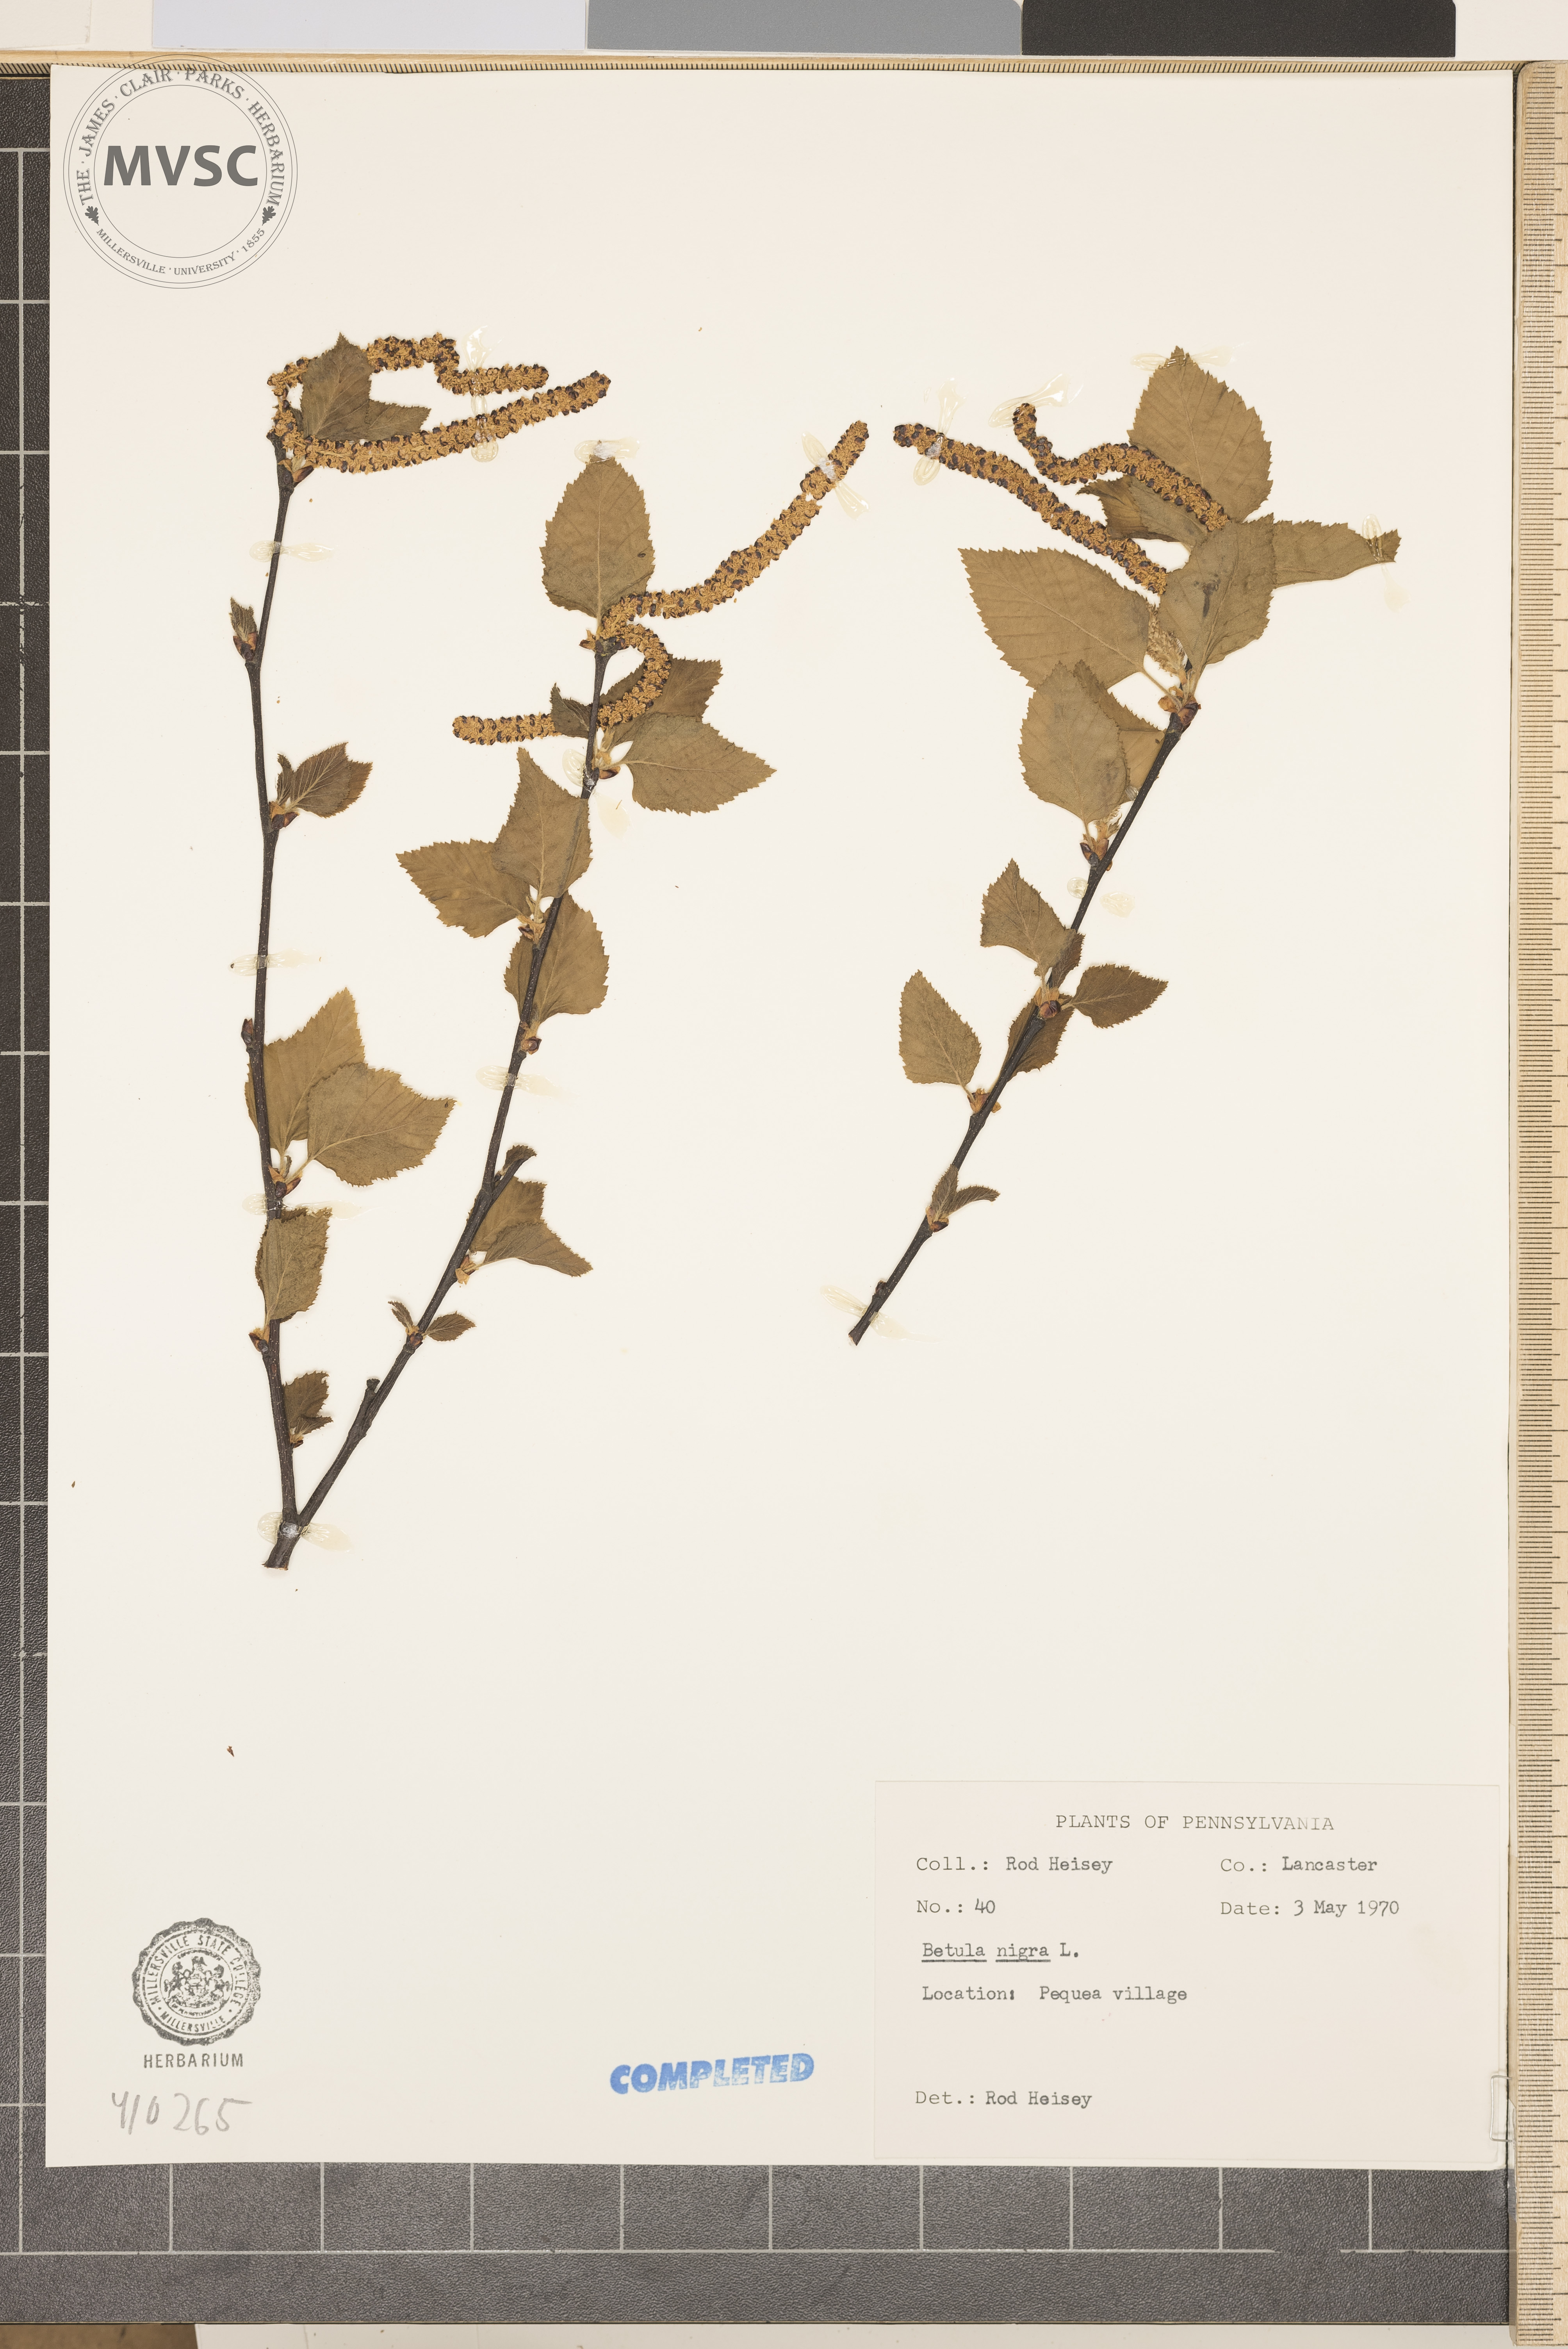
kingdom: Plantae
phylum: Tracheophyta
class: Magnoliopsida
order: Fagales
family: Betulaceae
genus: Betula
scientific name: Betula nigra
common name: river birch
